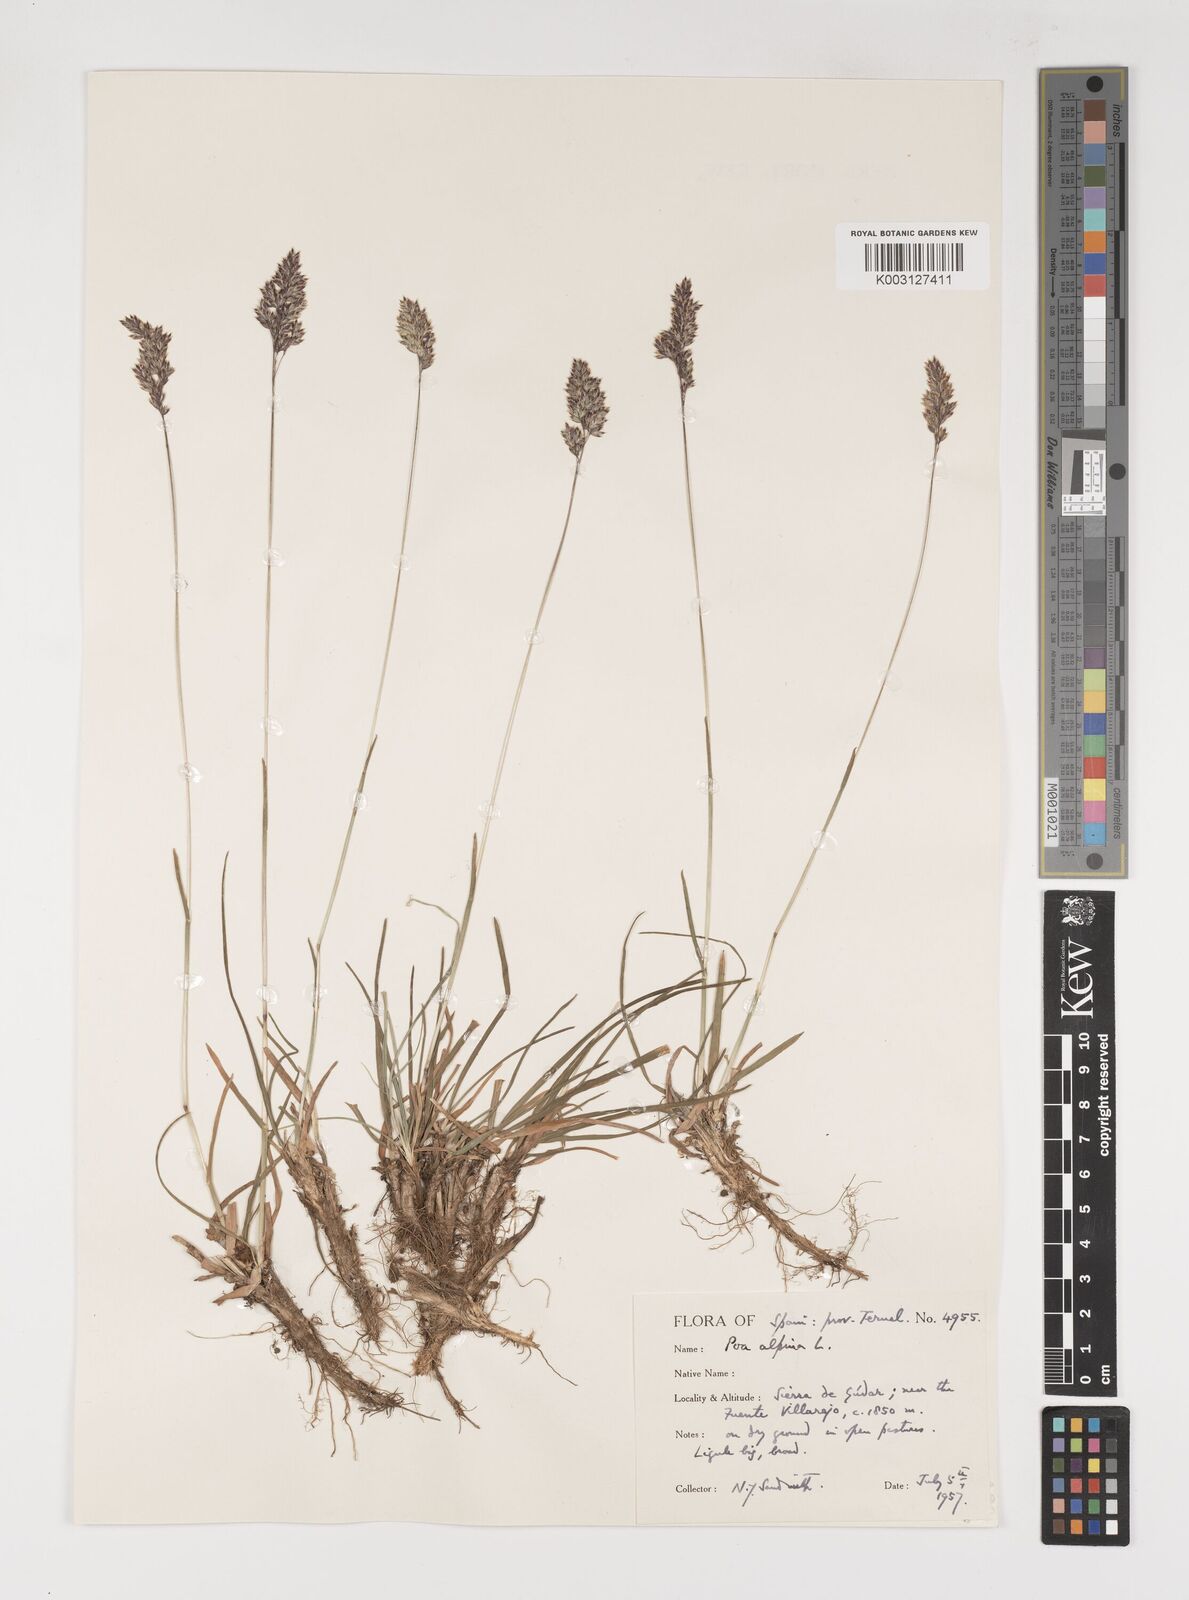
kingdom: Plantae
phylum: Tracheophyta
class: Liliopsida
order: Poales
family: Poaceae
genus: Poa
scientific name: Poa alpina
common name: Alpine bluegrass
